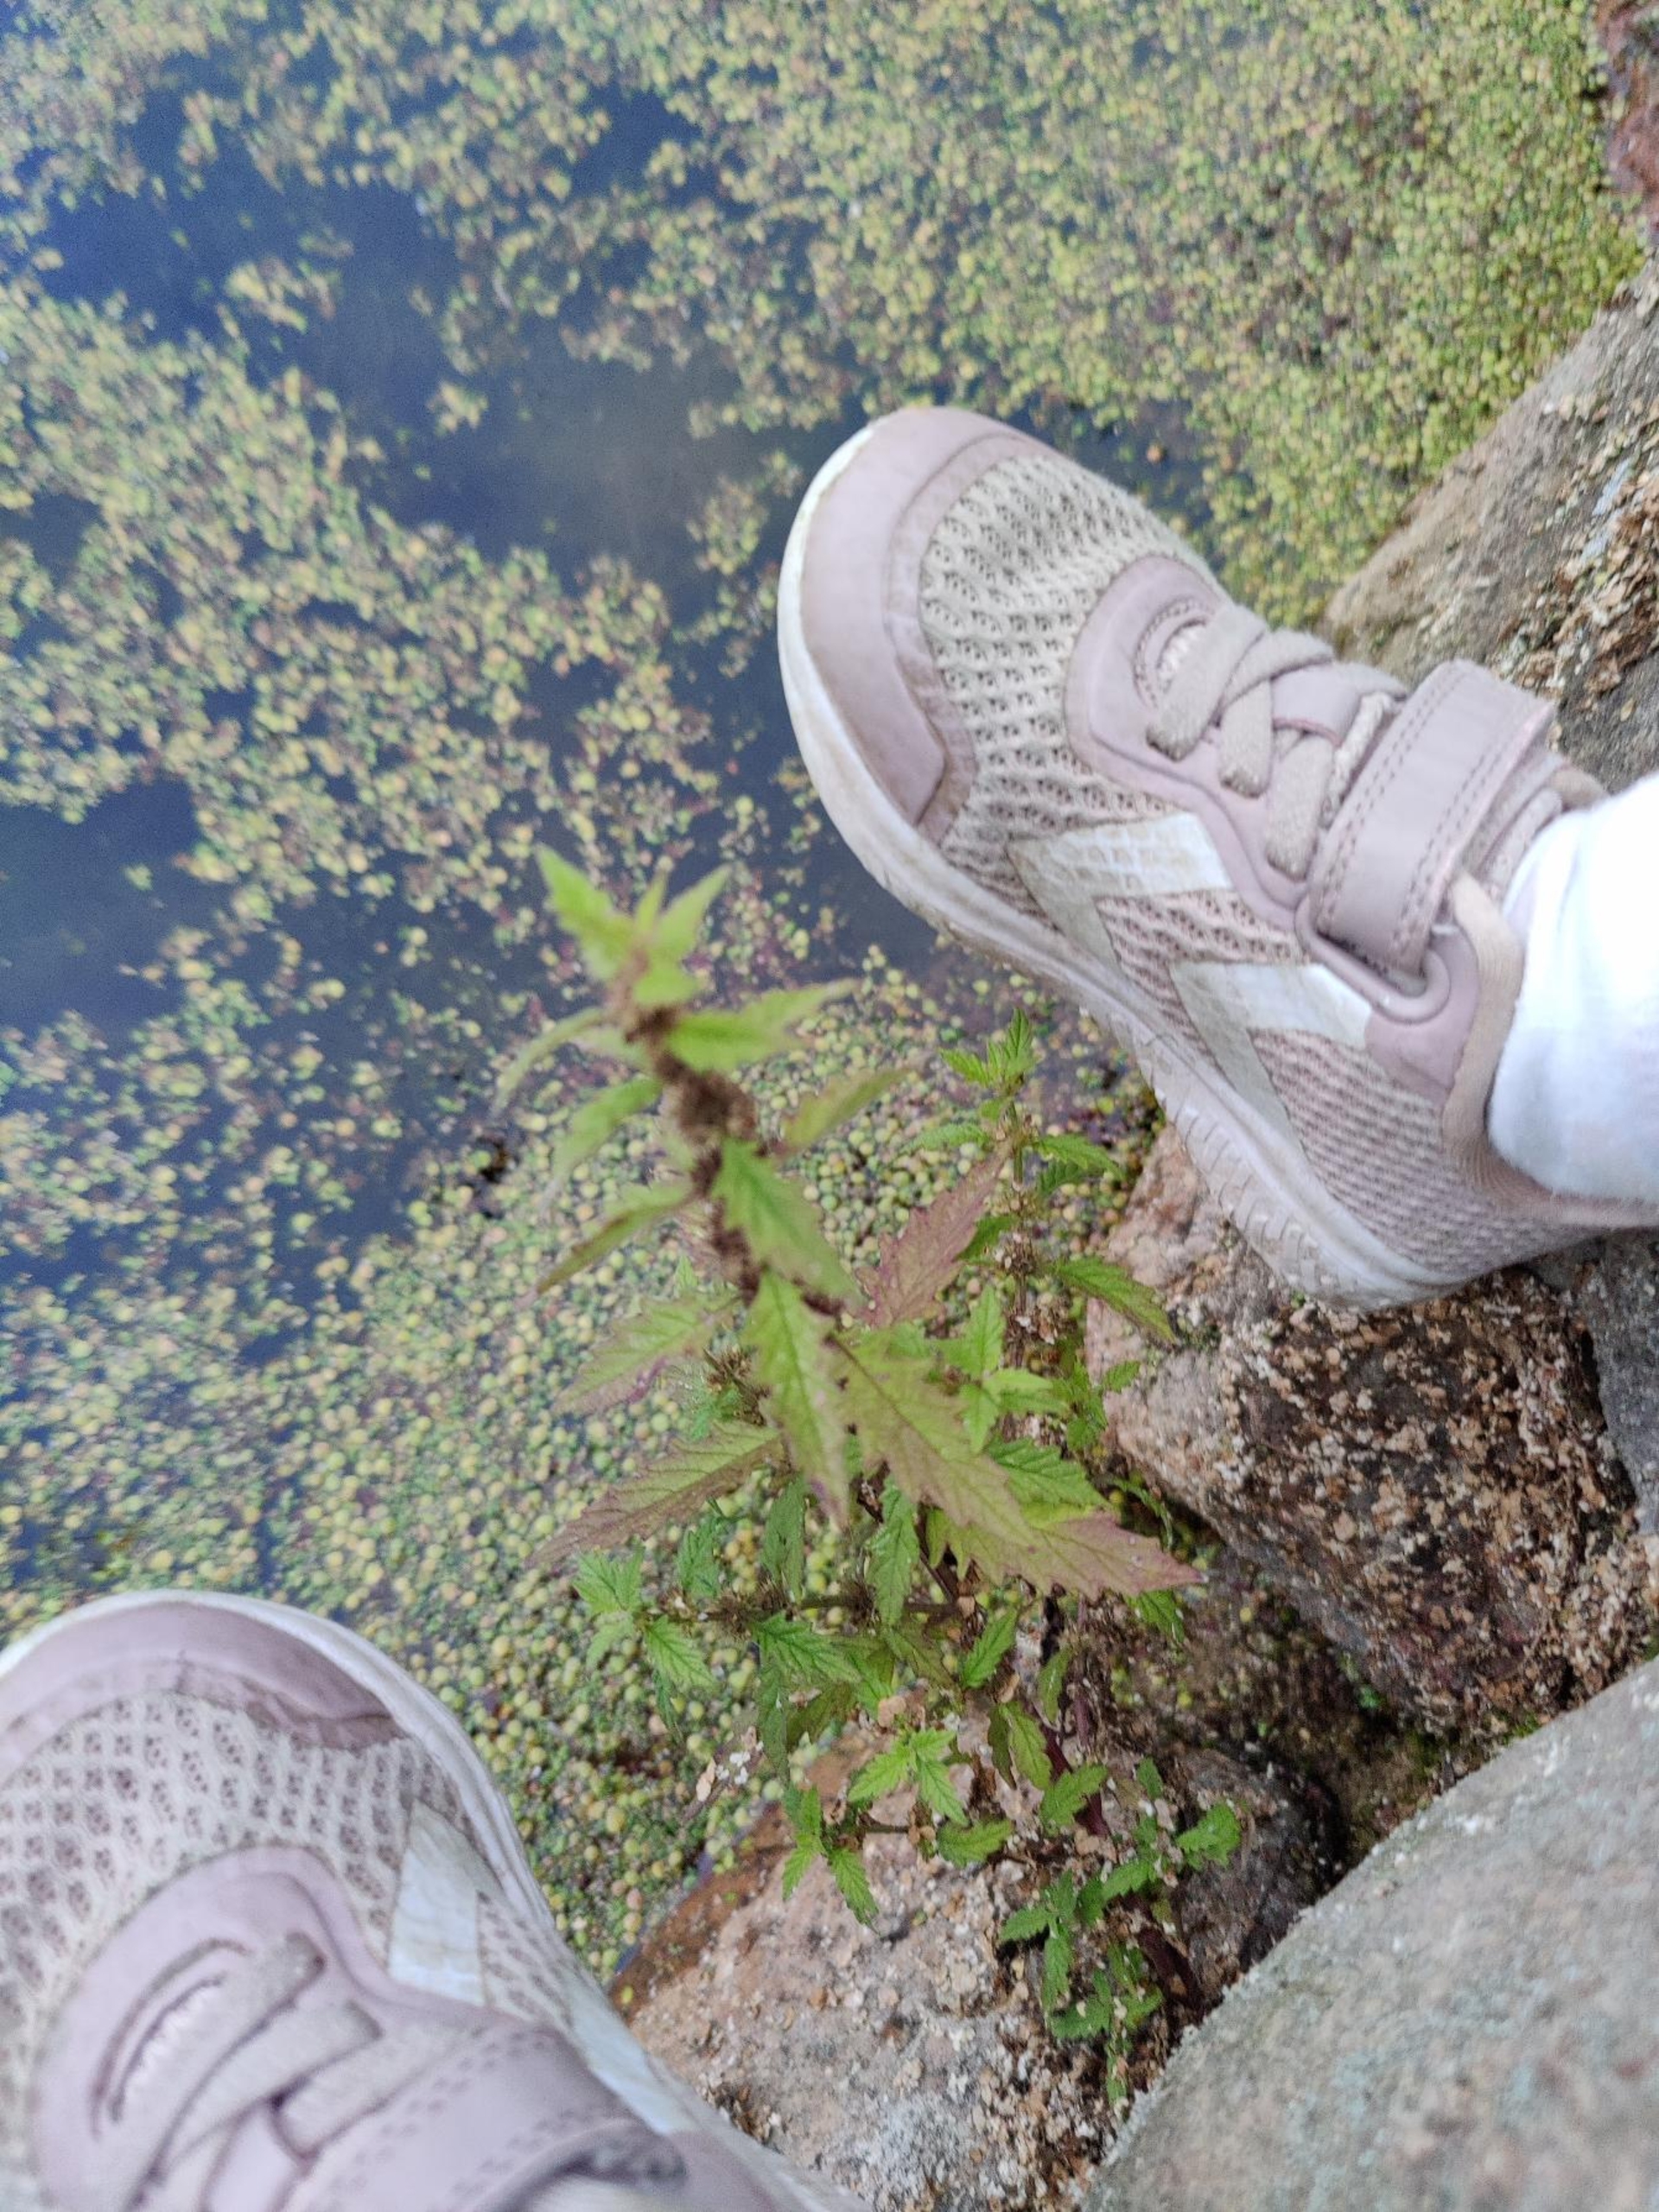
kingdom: Plantae
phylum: Tracheophyta
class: Magnoliopsida
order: Lamiales
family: Lamiaceae
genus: Lycopus
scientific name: Lycopus europaeus
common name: Sværtevæld
